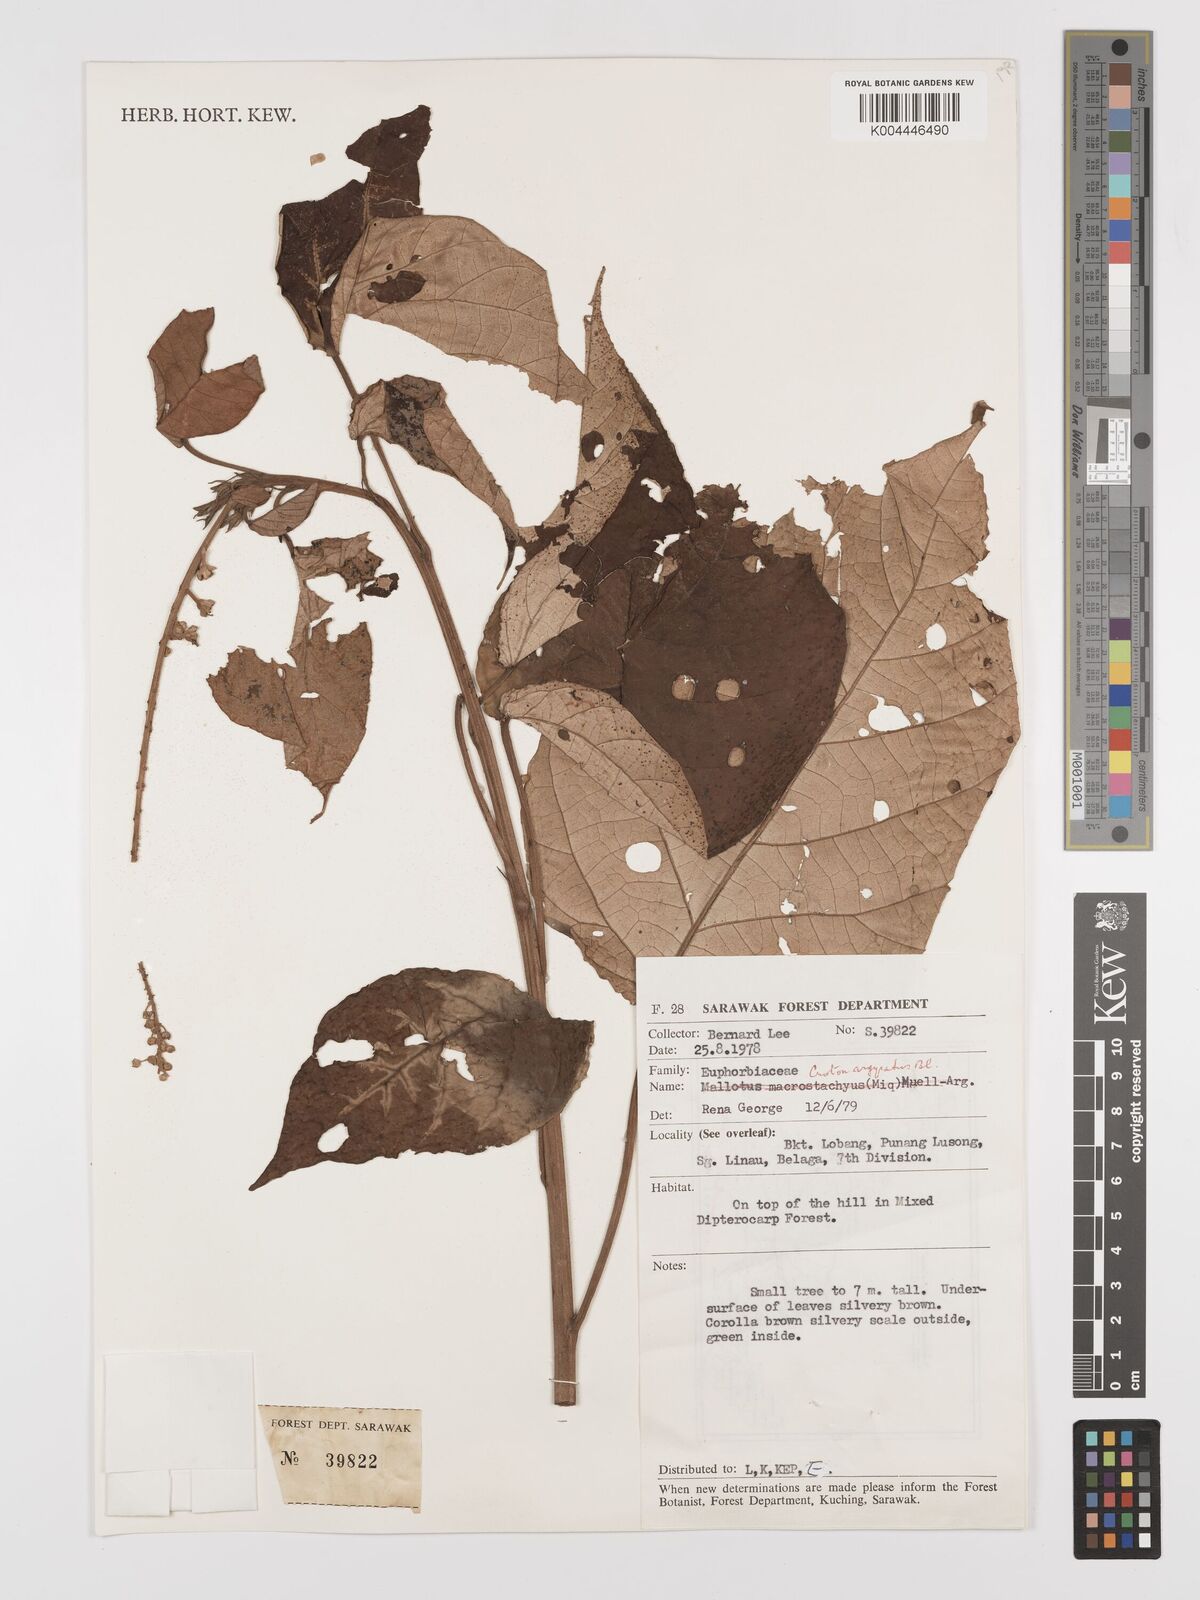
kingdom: Plantae
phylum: Tracheophyta
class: Magnoliopsida
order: Malpighiales
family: Euphorbiaceae
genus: Croton
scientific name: Croton argyratus
